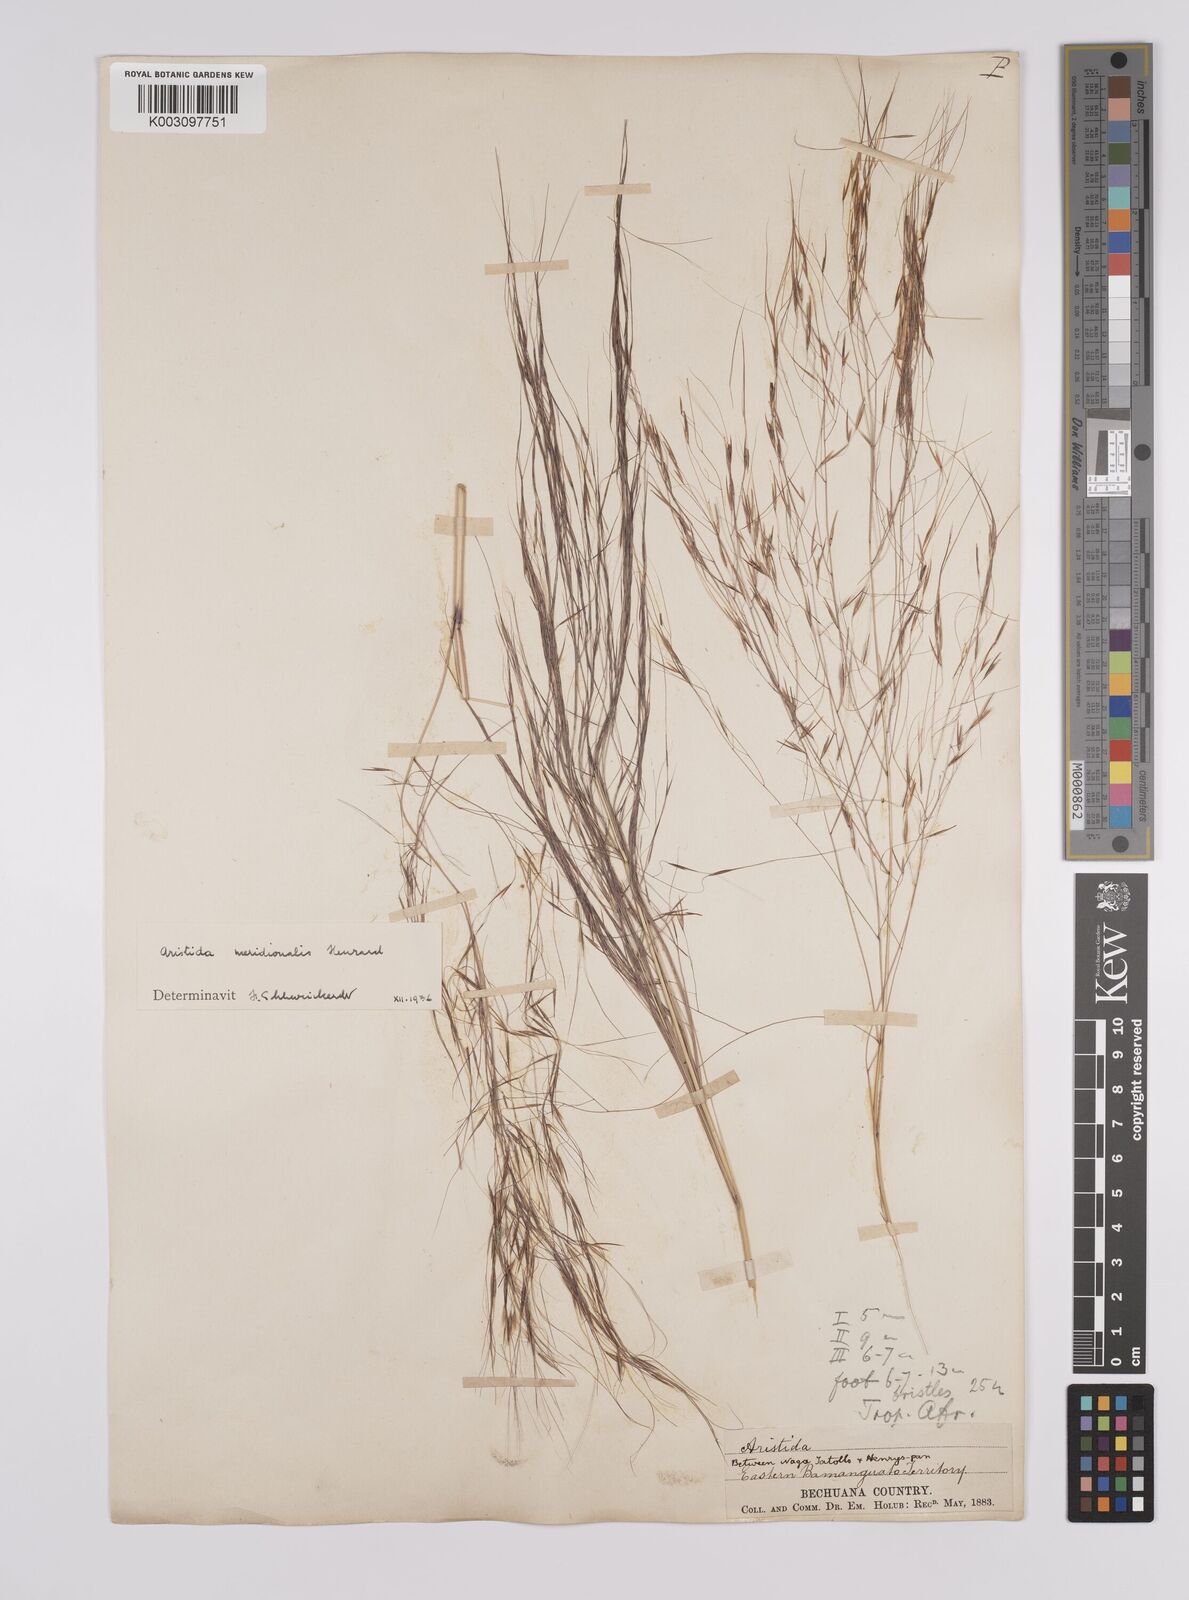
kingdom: Plantae
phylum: Tracheophyta
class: Liliopsida
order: Poales
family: Poaceae
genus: Aristida
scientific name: Aristida meridionalis
